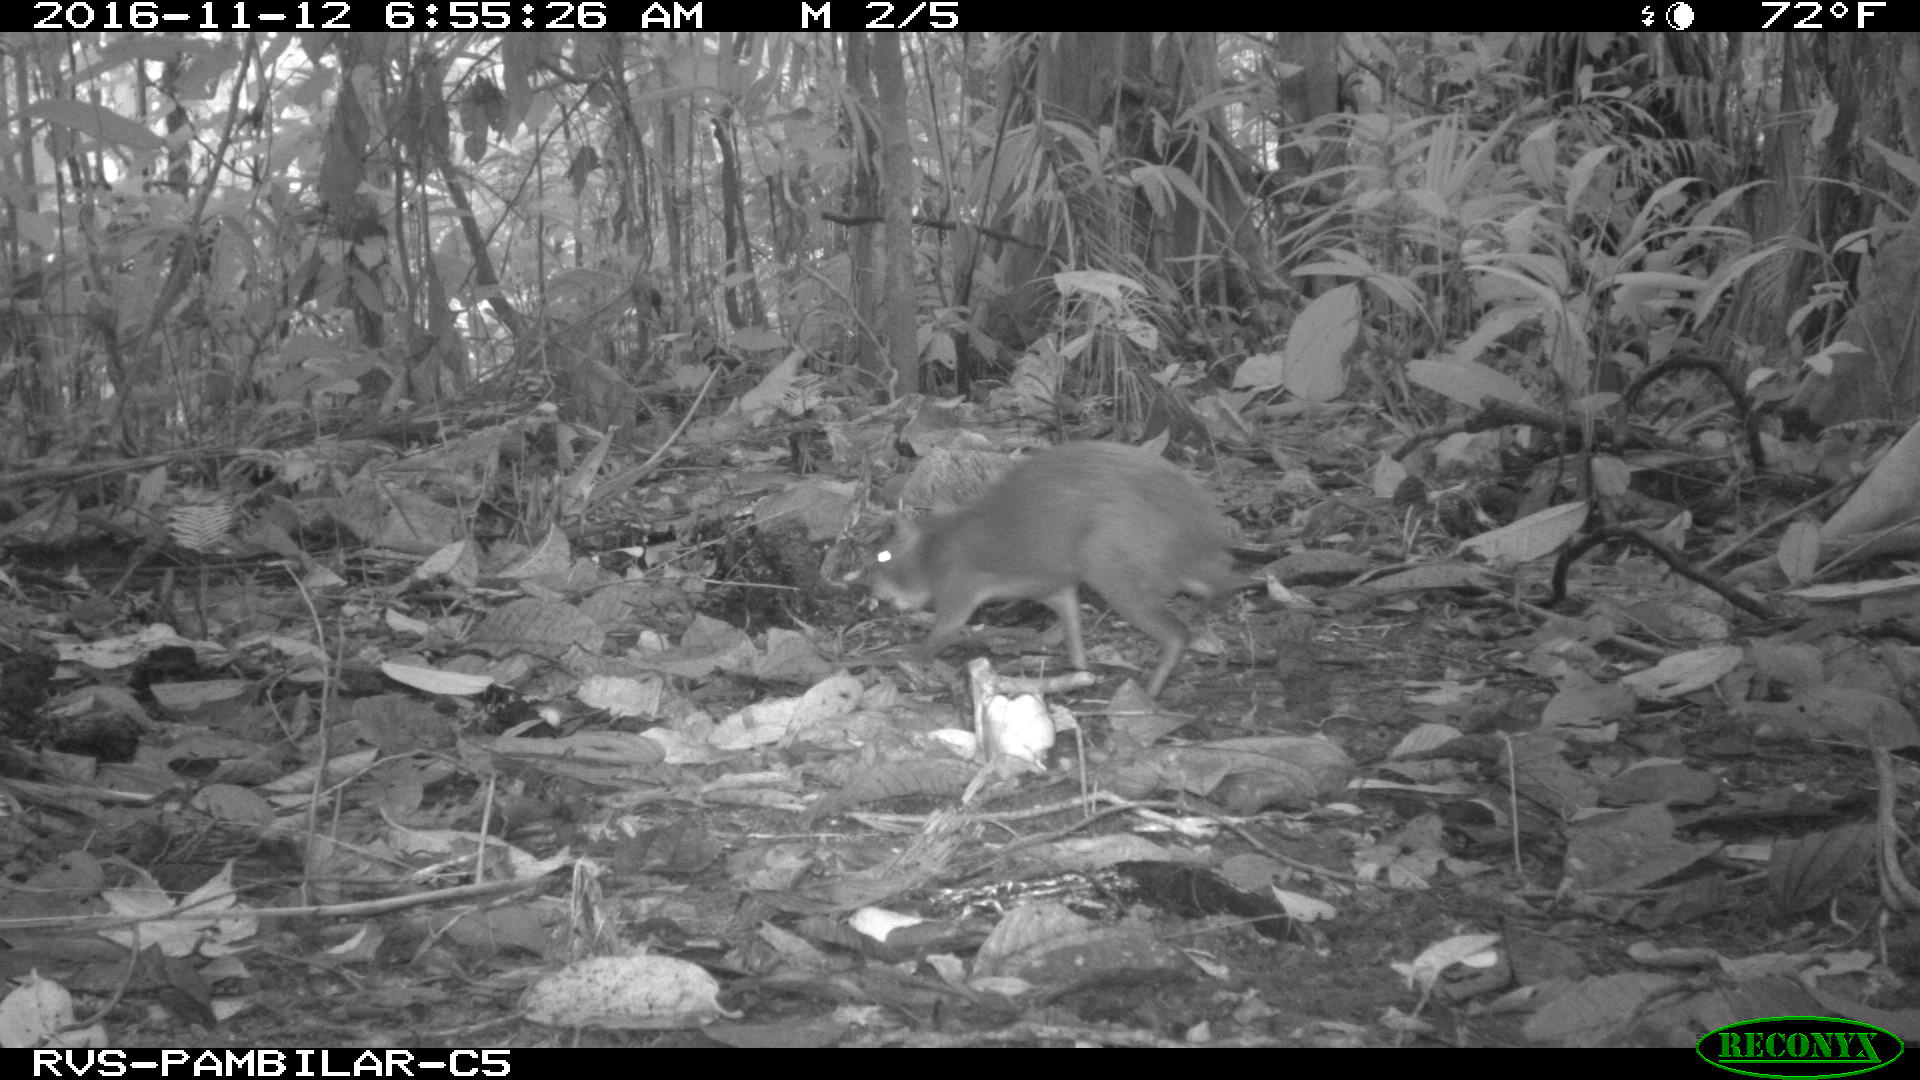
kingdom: Animalia
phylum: Chordata
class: Mammalia
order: Rodentia
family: Dasyproctidae
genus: Dasyprocta
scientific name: Dasyprocta punctata
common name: Central american agouti
